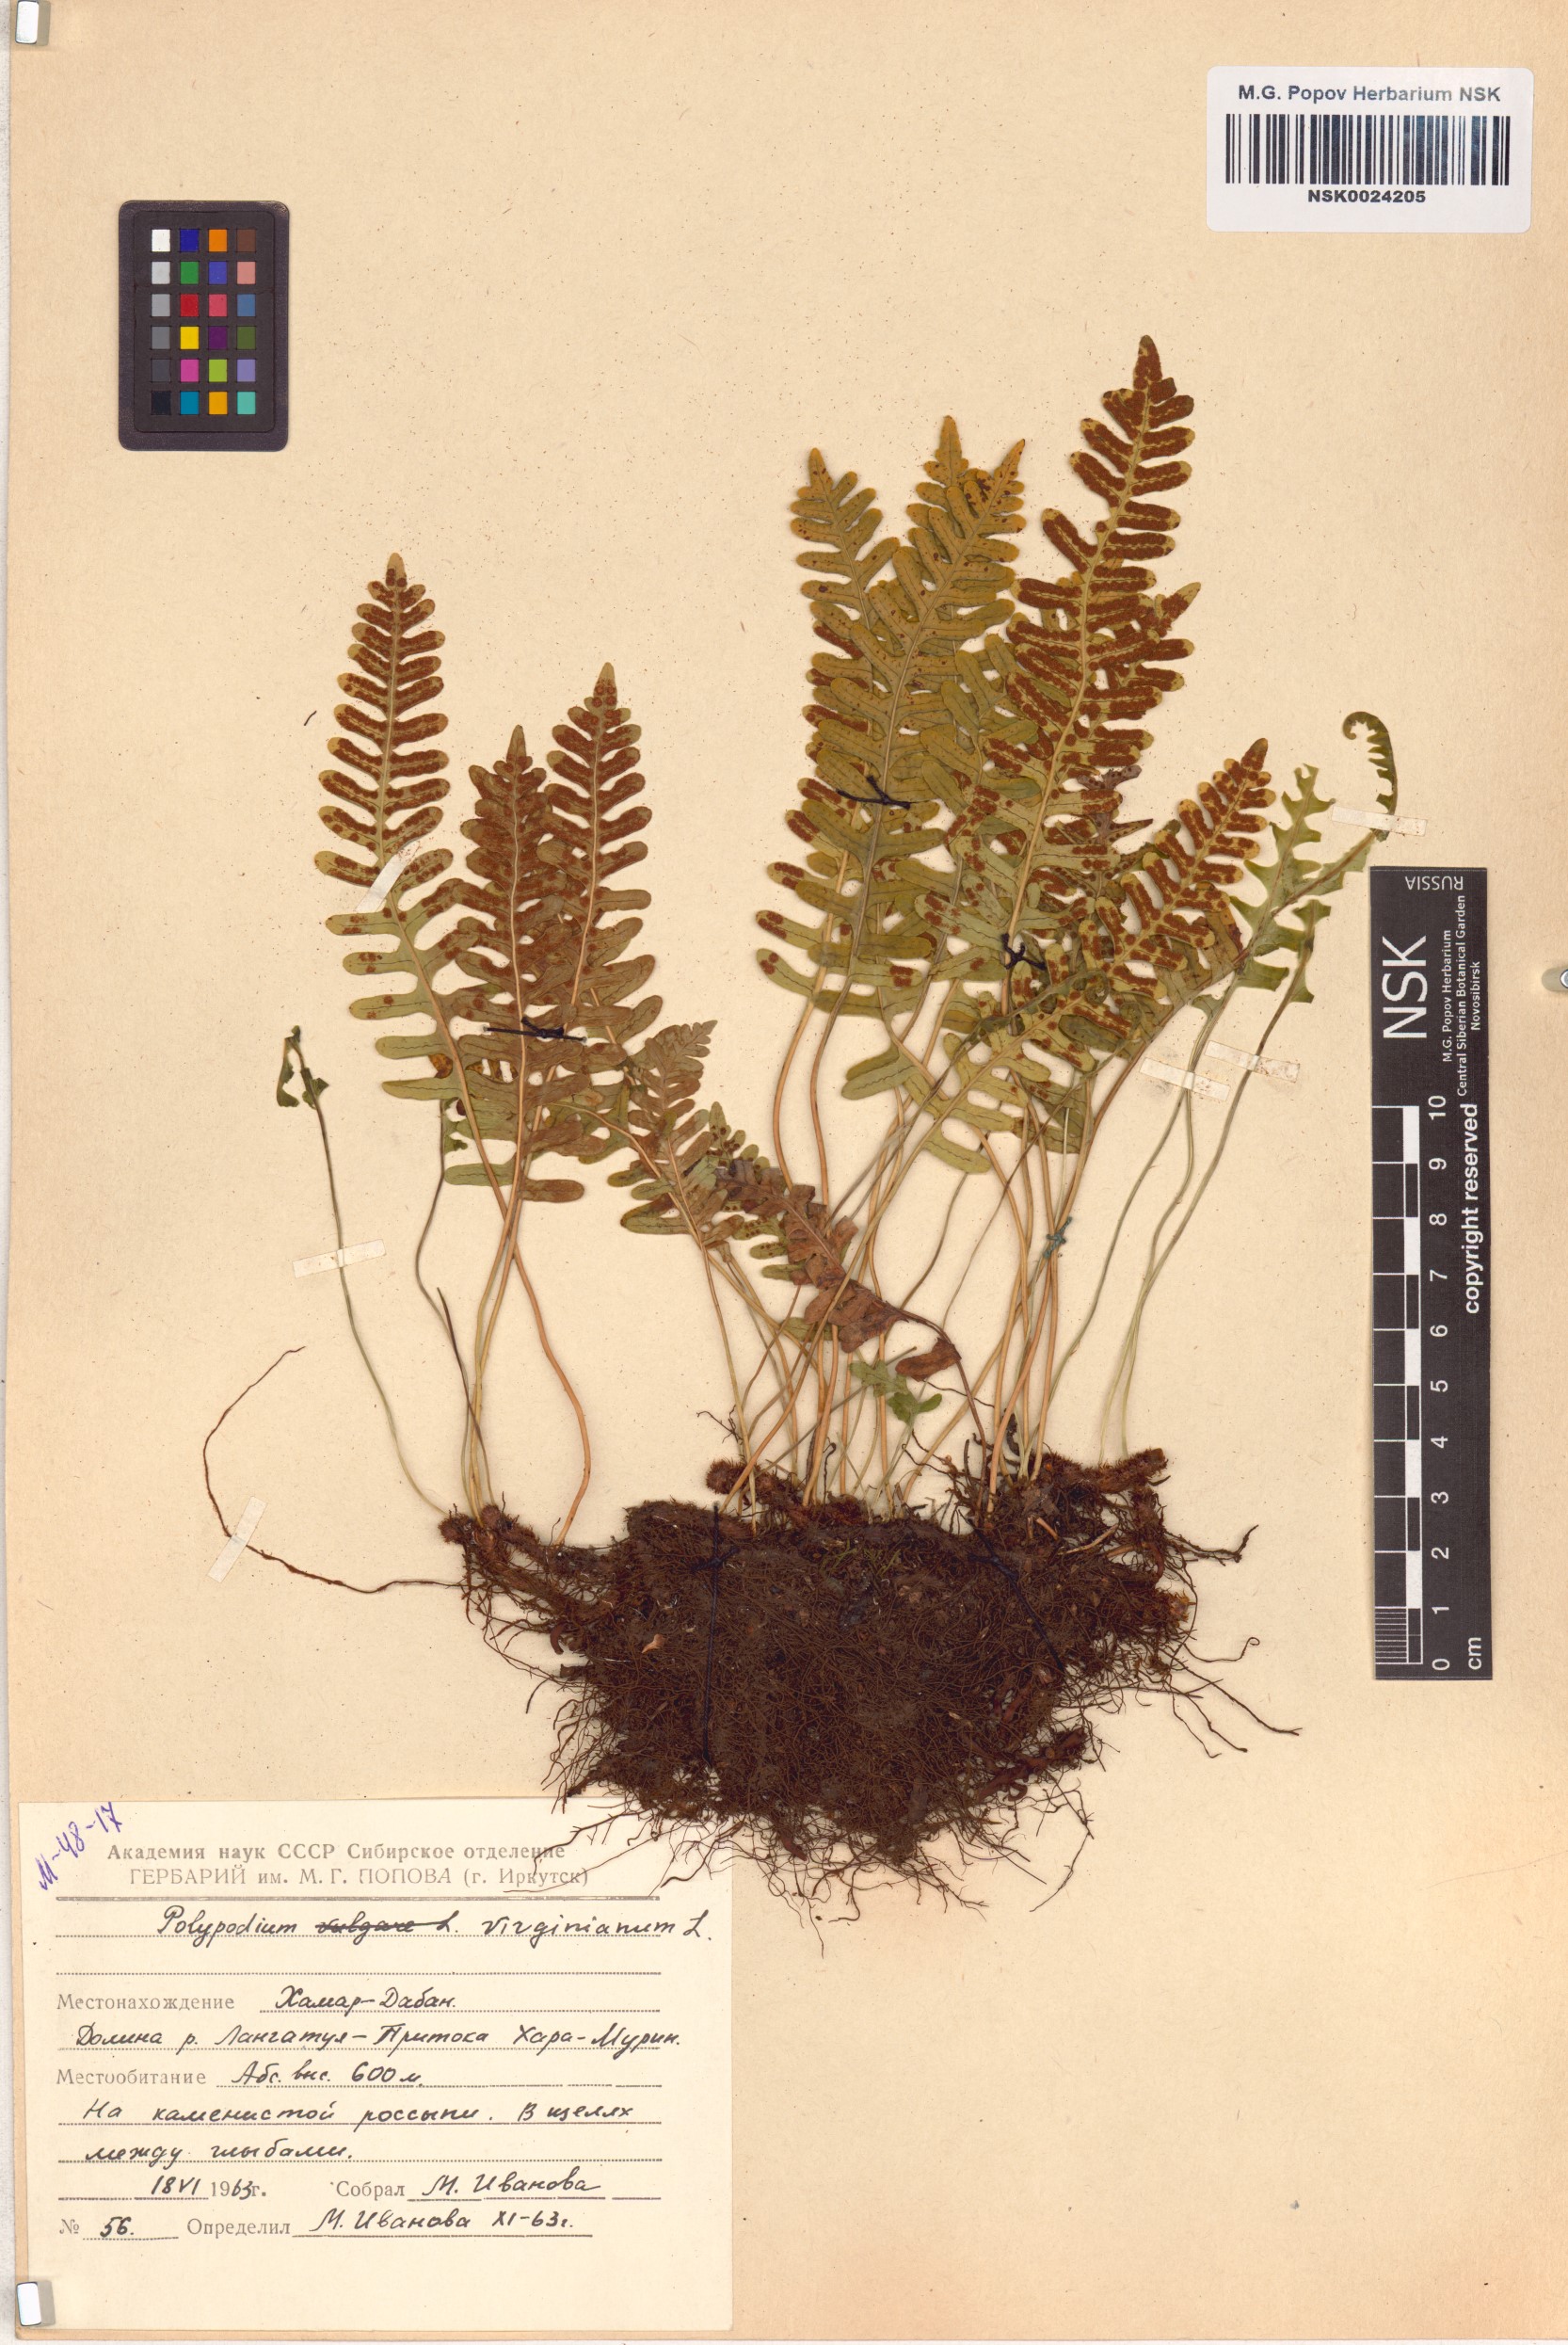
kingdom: Plantae
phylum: Tracheophyta
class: Polypodiopsida
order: Polypodiales
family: Polypodiaceae
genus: Polypodium
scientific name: Polypodium virginianum
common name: American wall fern
